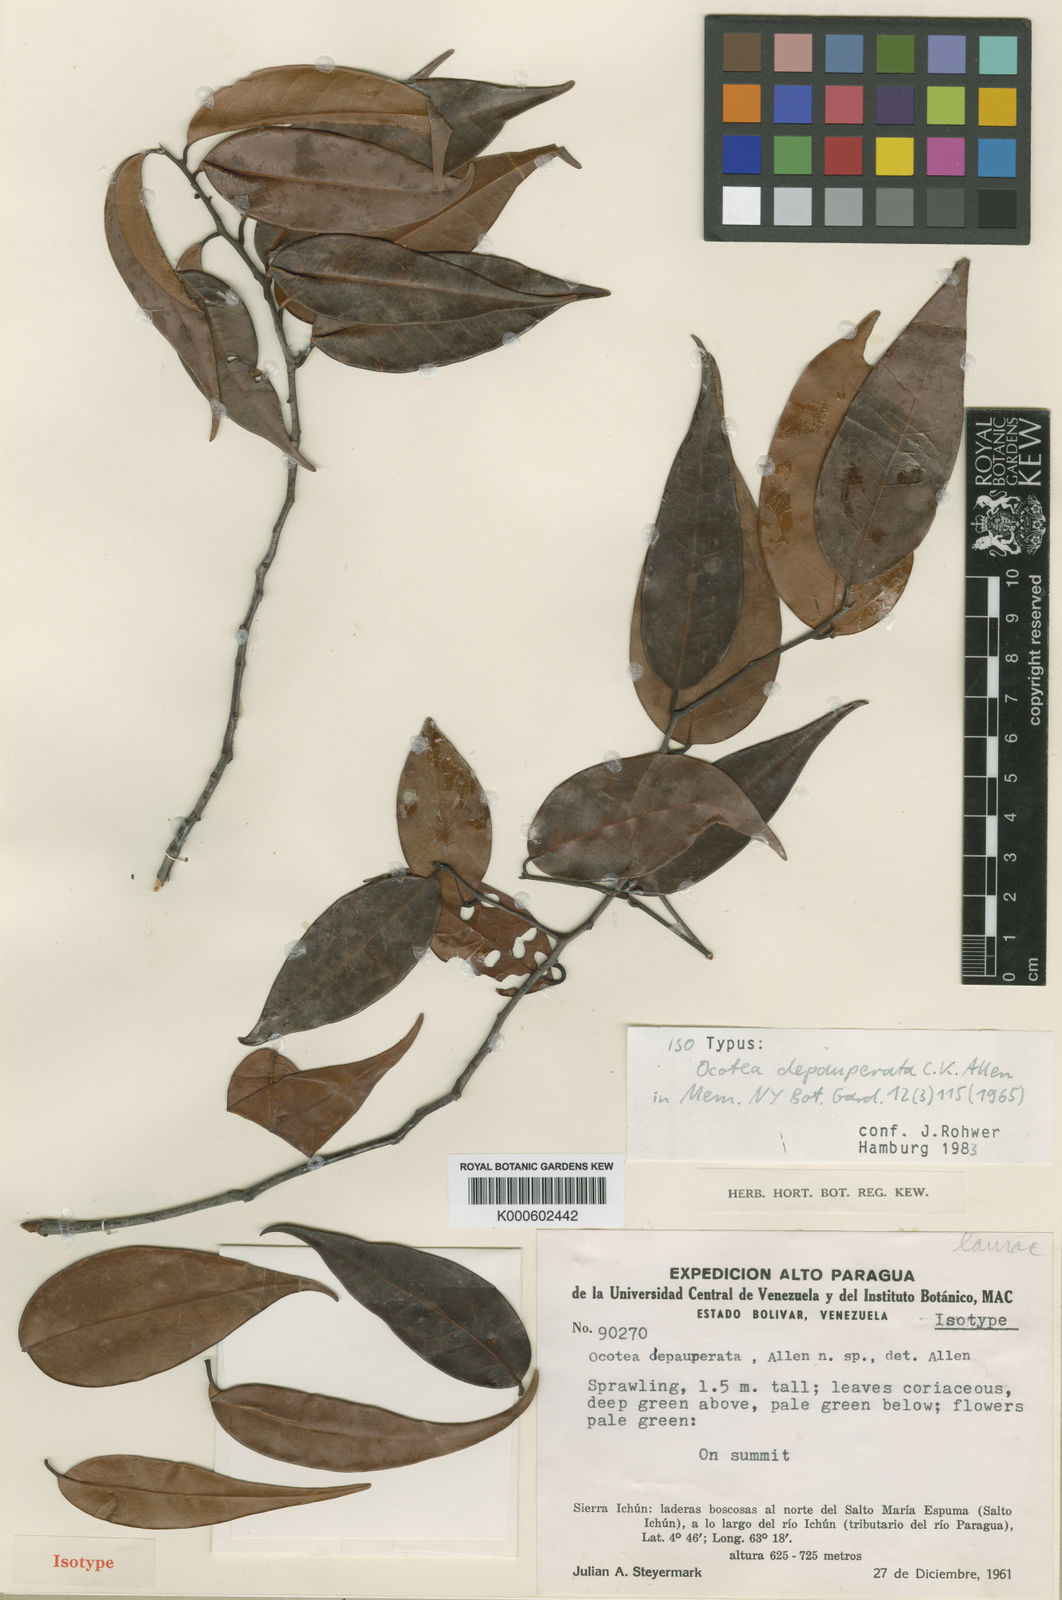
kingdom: Plantae
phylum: Tracheophyta
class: Magnoliopsida
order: Laurales
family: Lauraceae
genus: Ocotea
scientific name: Ocotea depauperata
